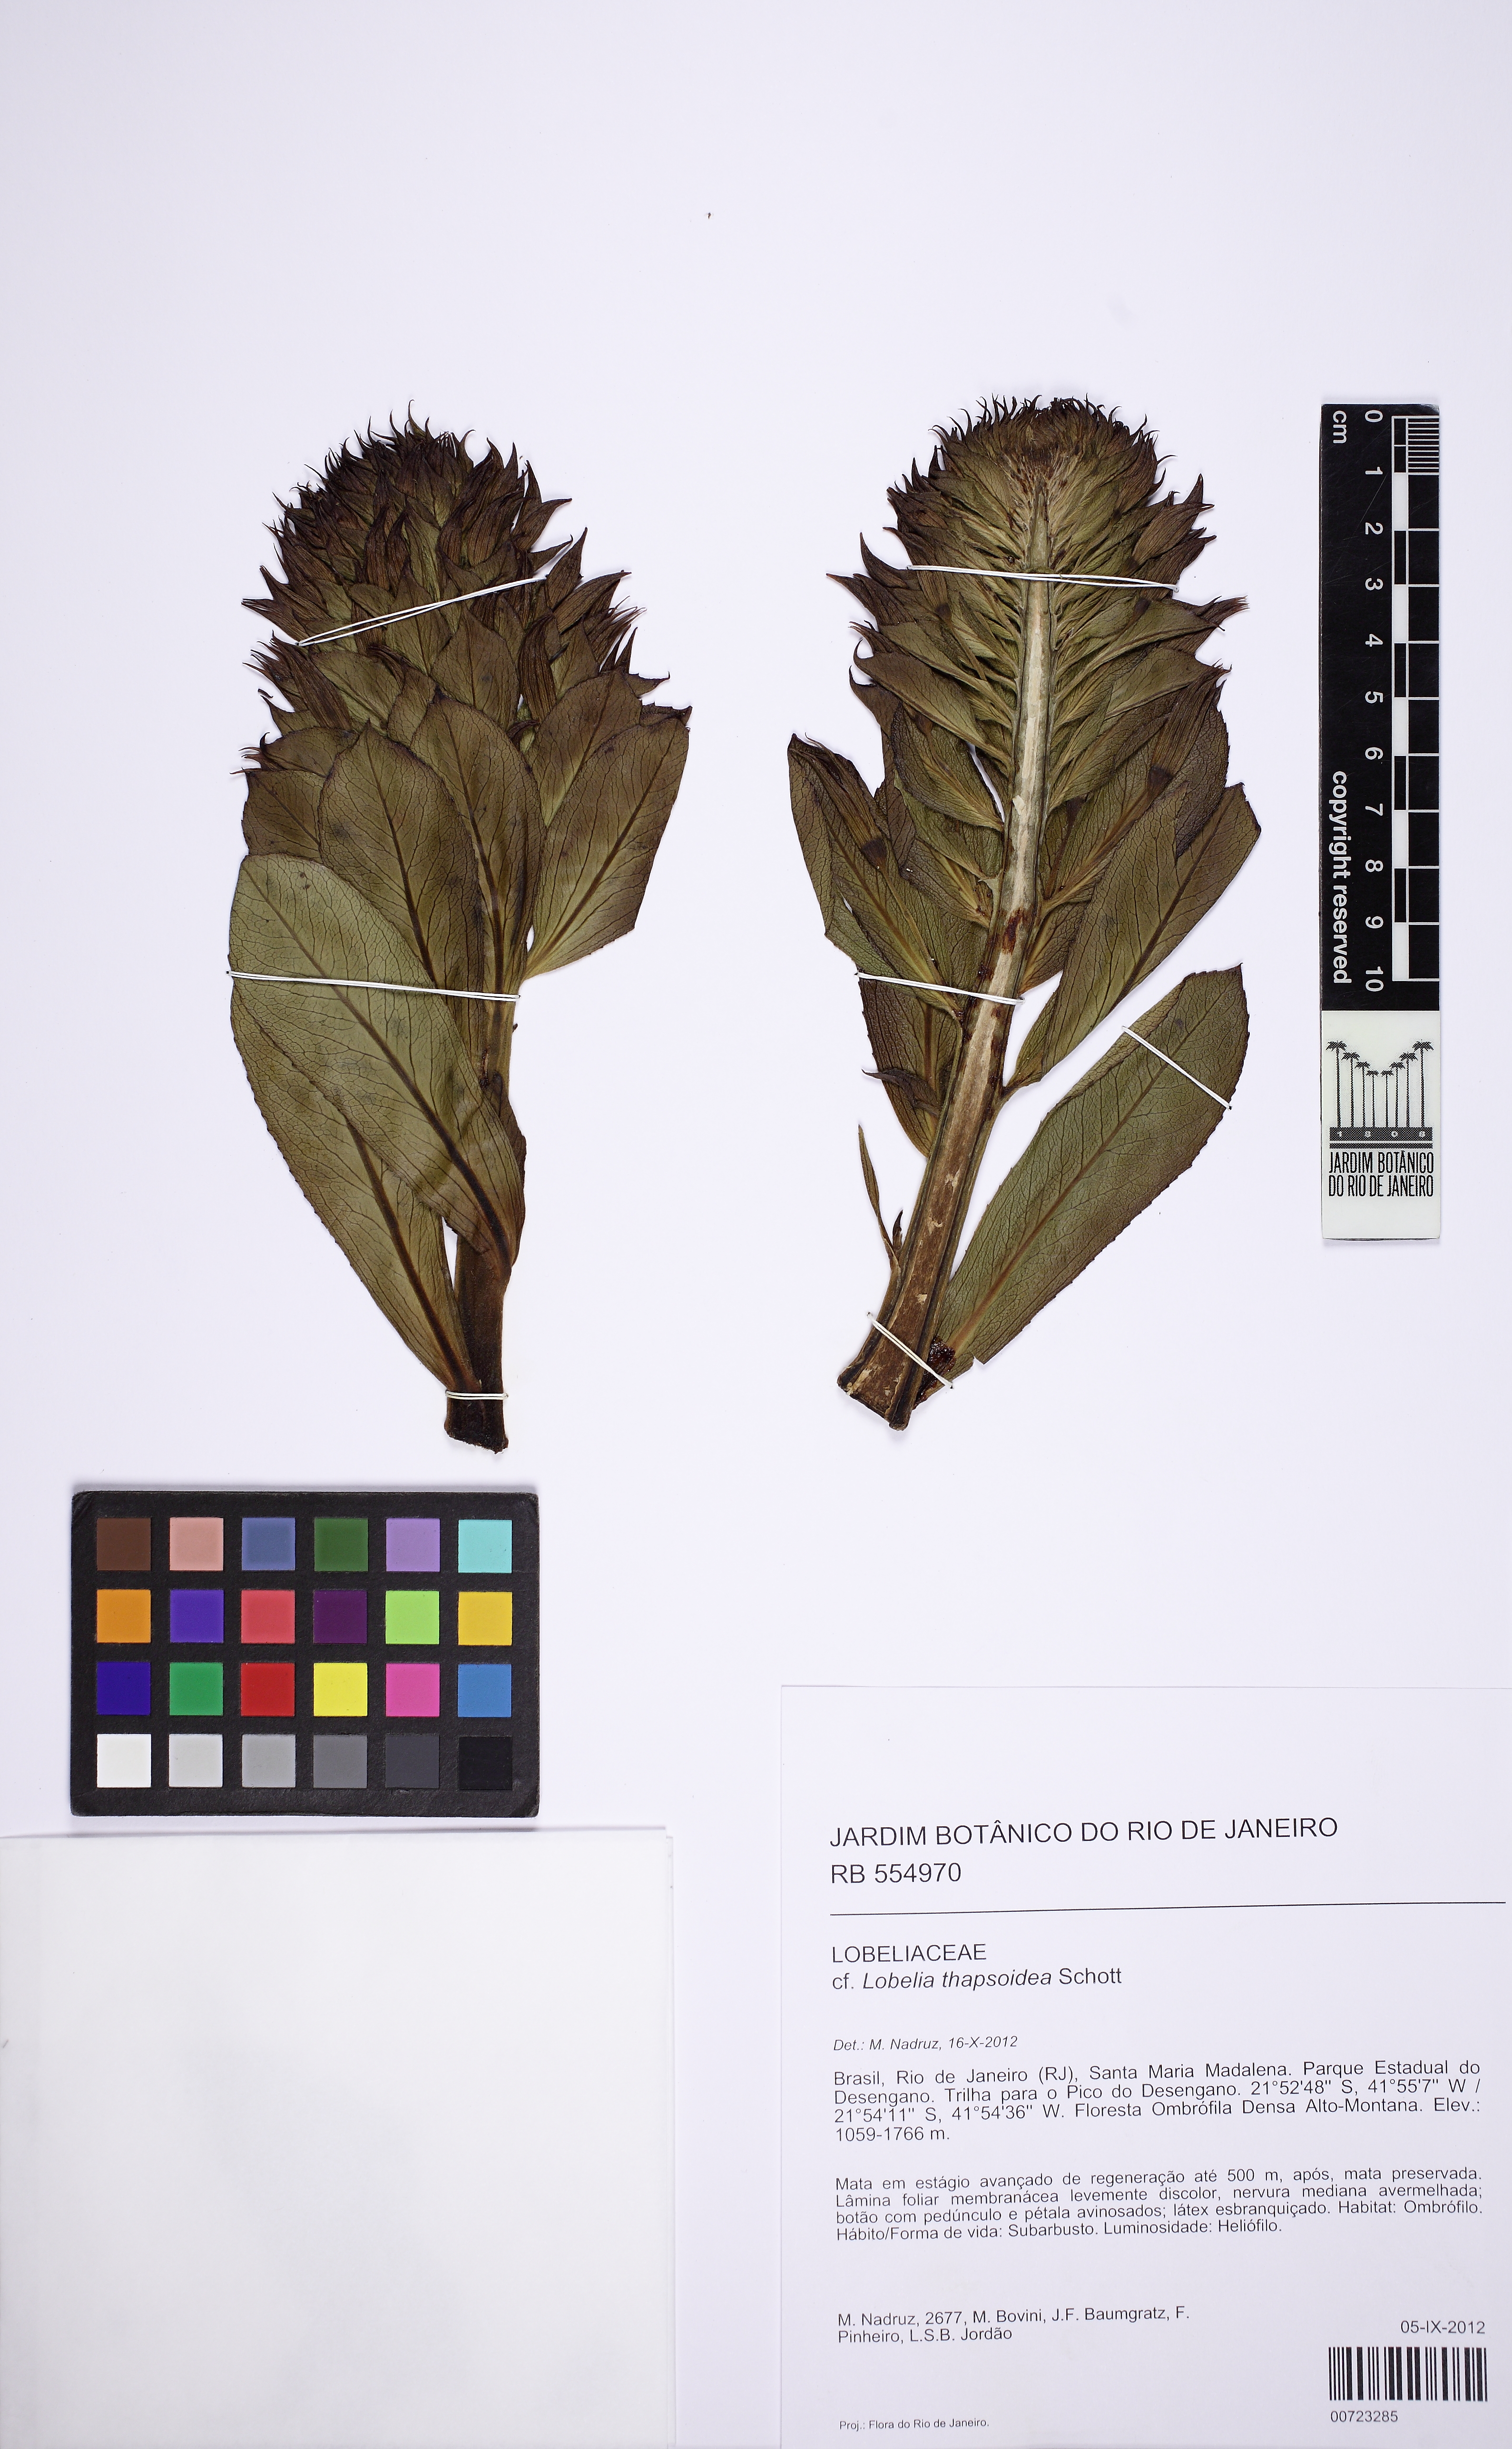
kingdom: Plantae
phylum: Tracheophyta
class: Magnoliopsida
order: Asterales
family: Campanulaceae
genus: Lobelia
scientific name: Lobelia santos-limae
